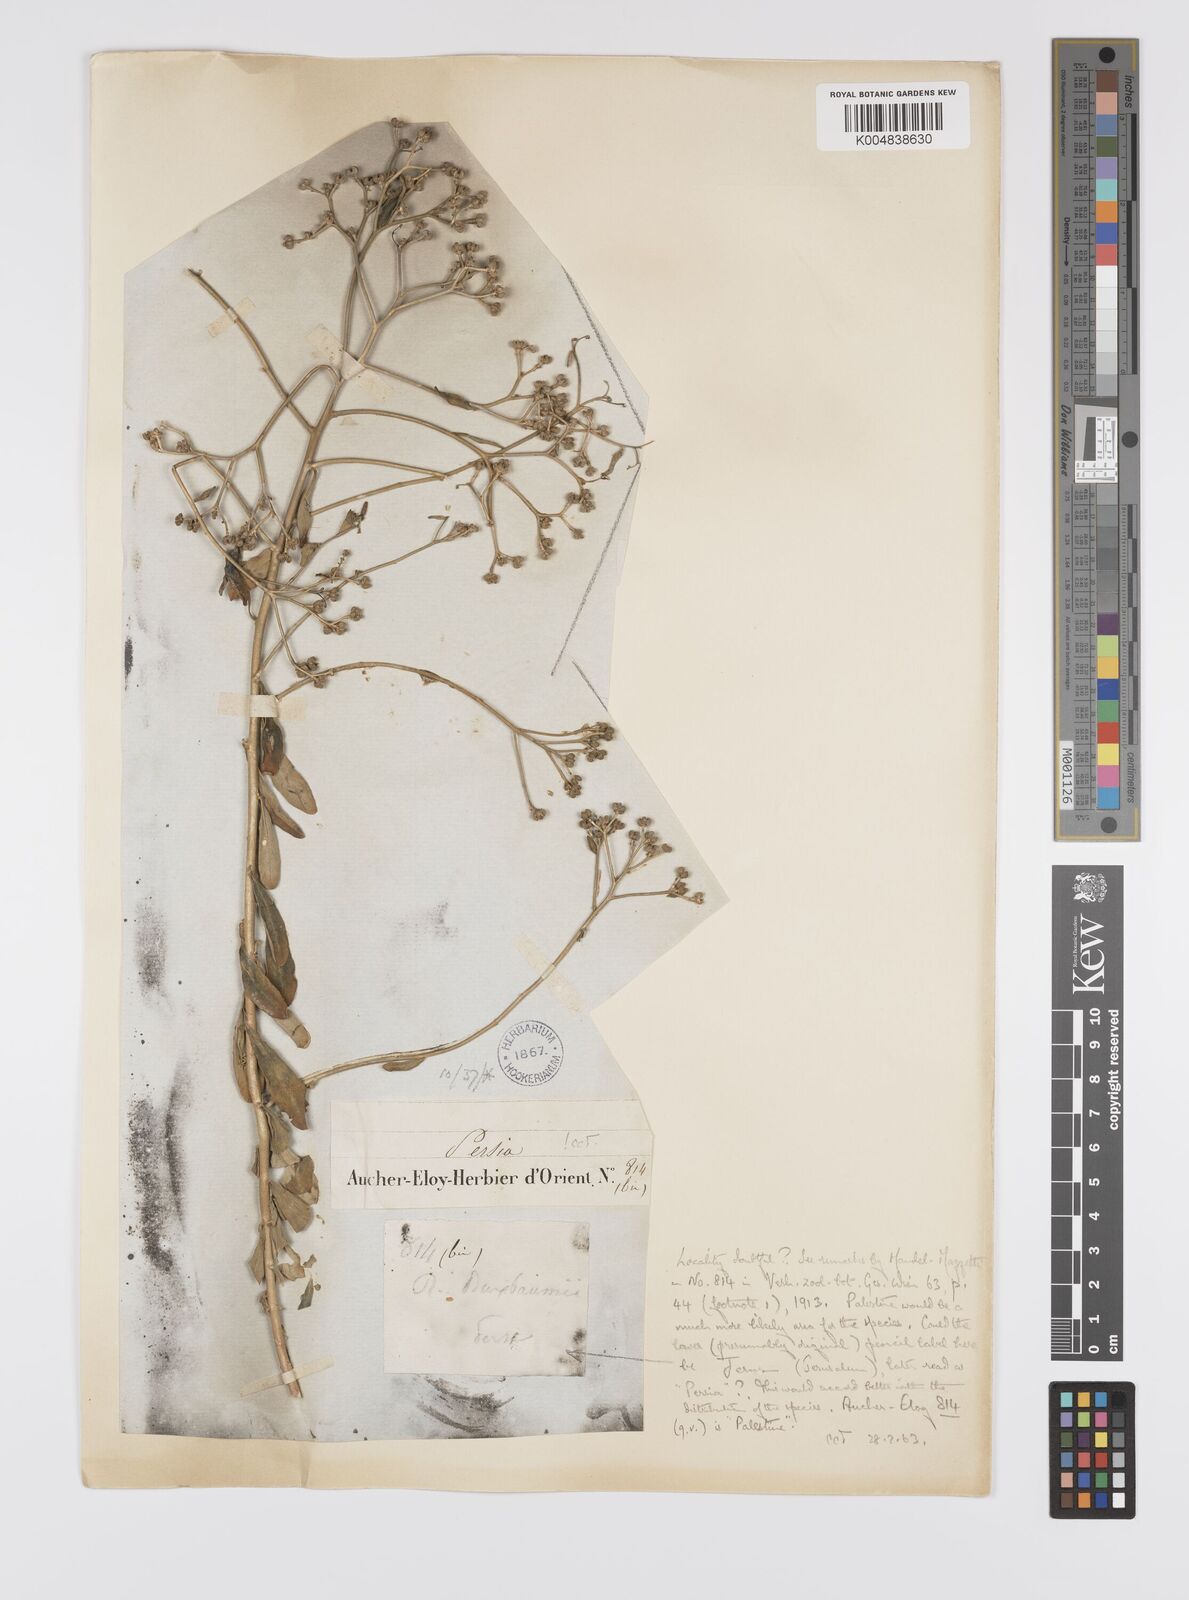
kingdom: Plantae
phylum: Tracheophyta
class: Magnoliopsida
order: Sapindales
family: Rutaceae
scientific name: Rutaceae
